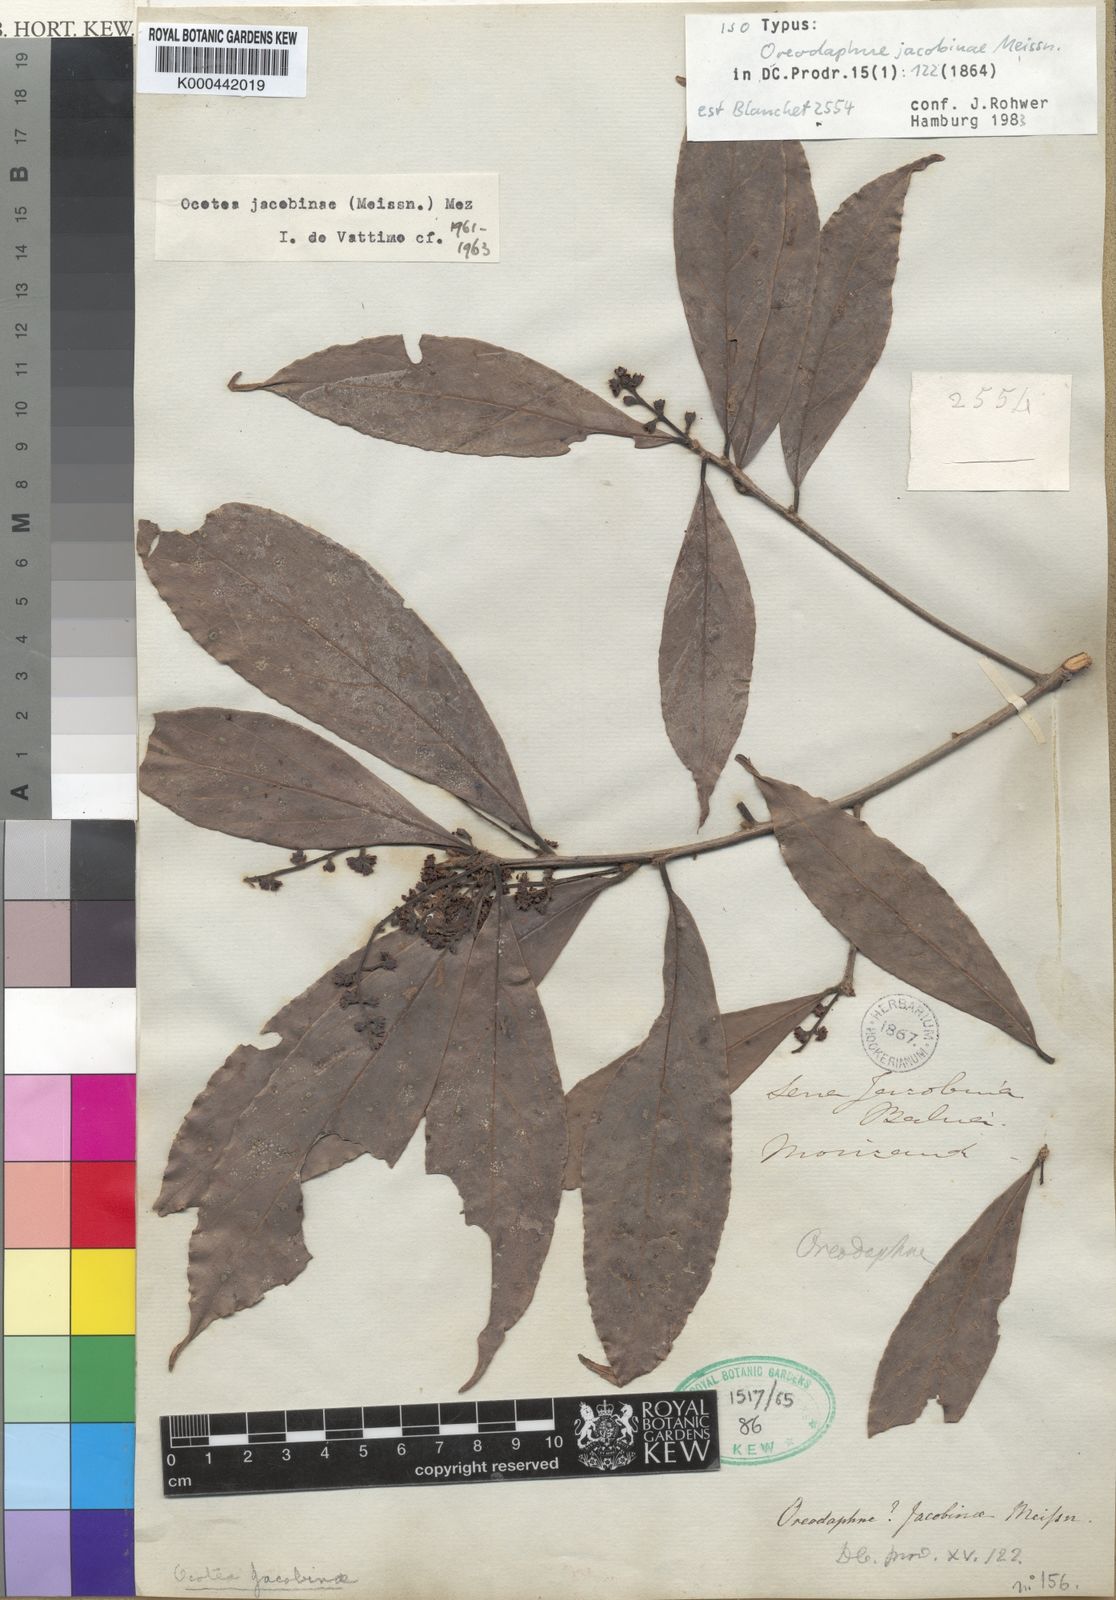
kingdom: Plantae
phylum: Tracheophyta
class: Magnoliopsida
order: Laurales
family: Lauraceae
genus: Andea
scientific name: Andea velutina
